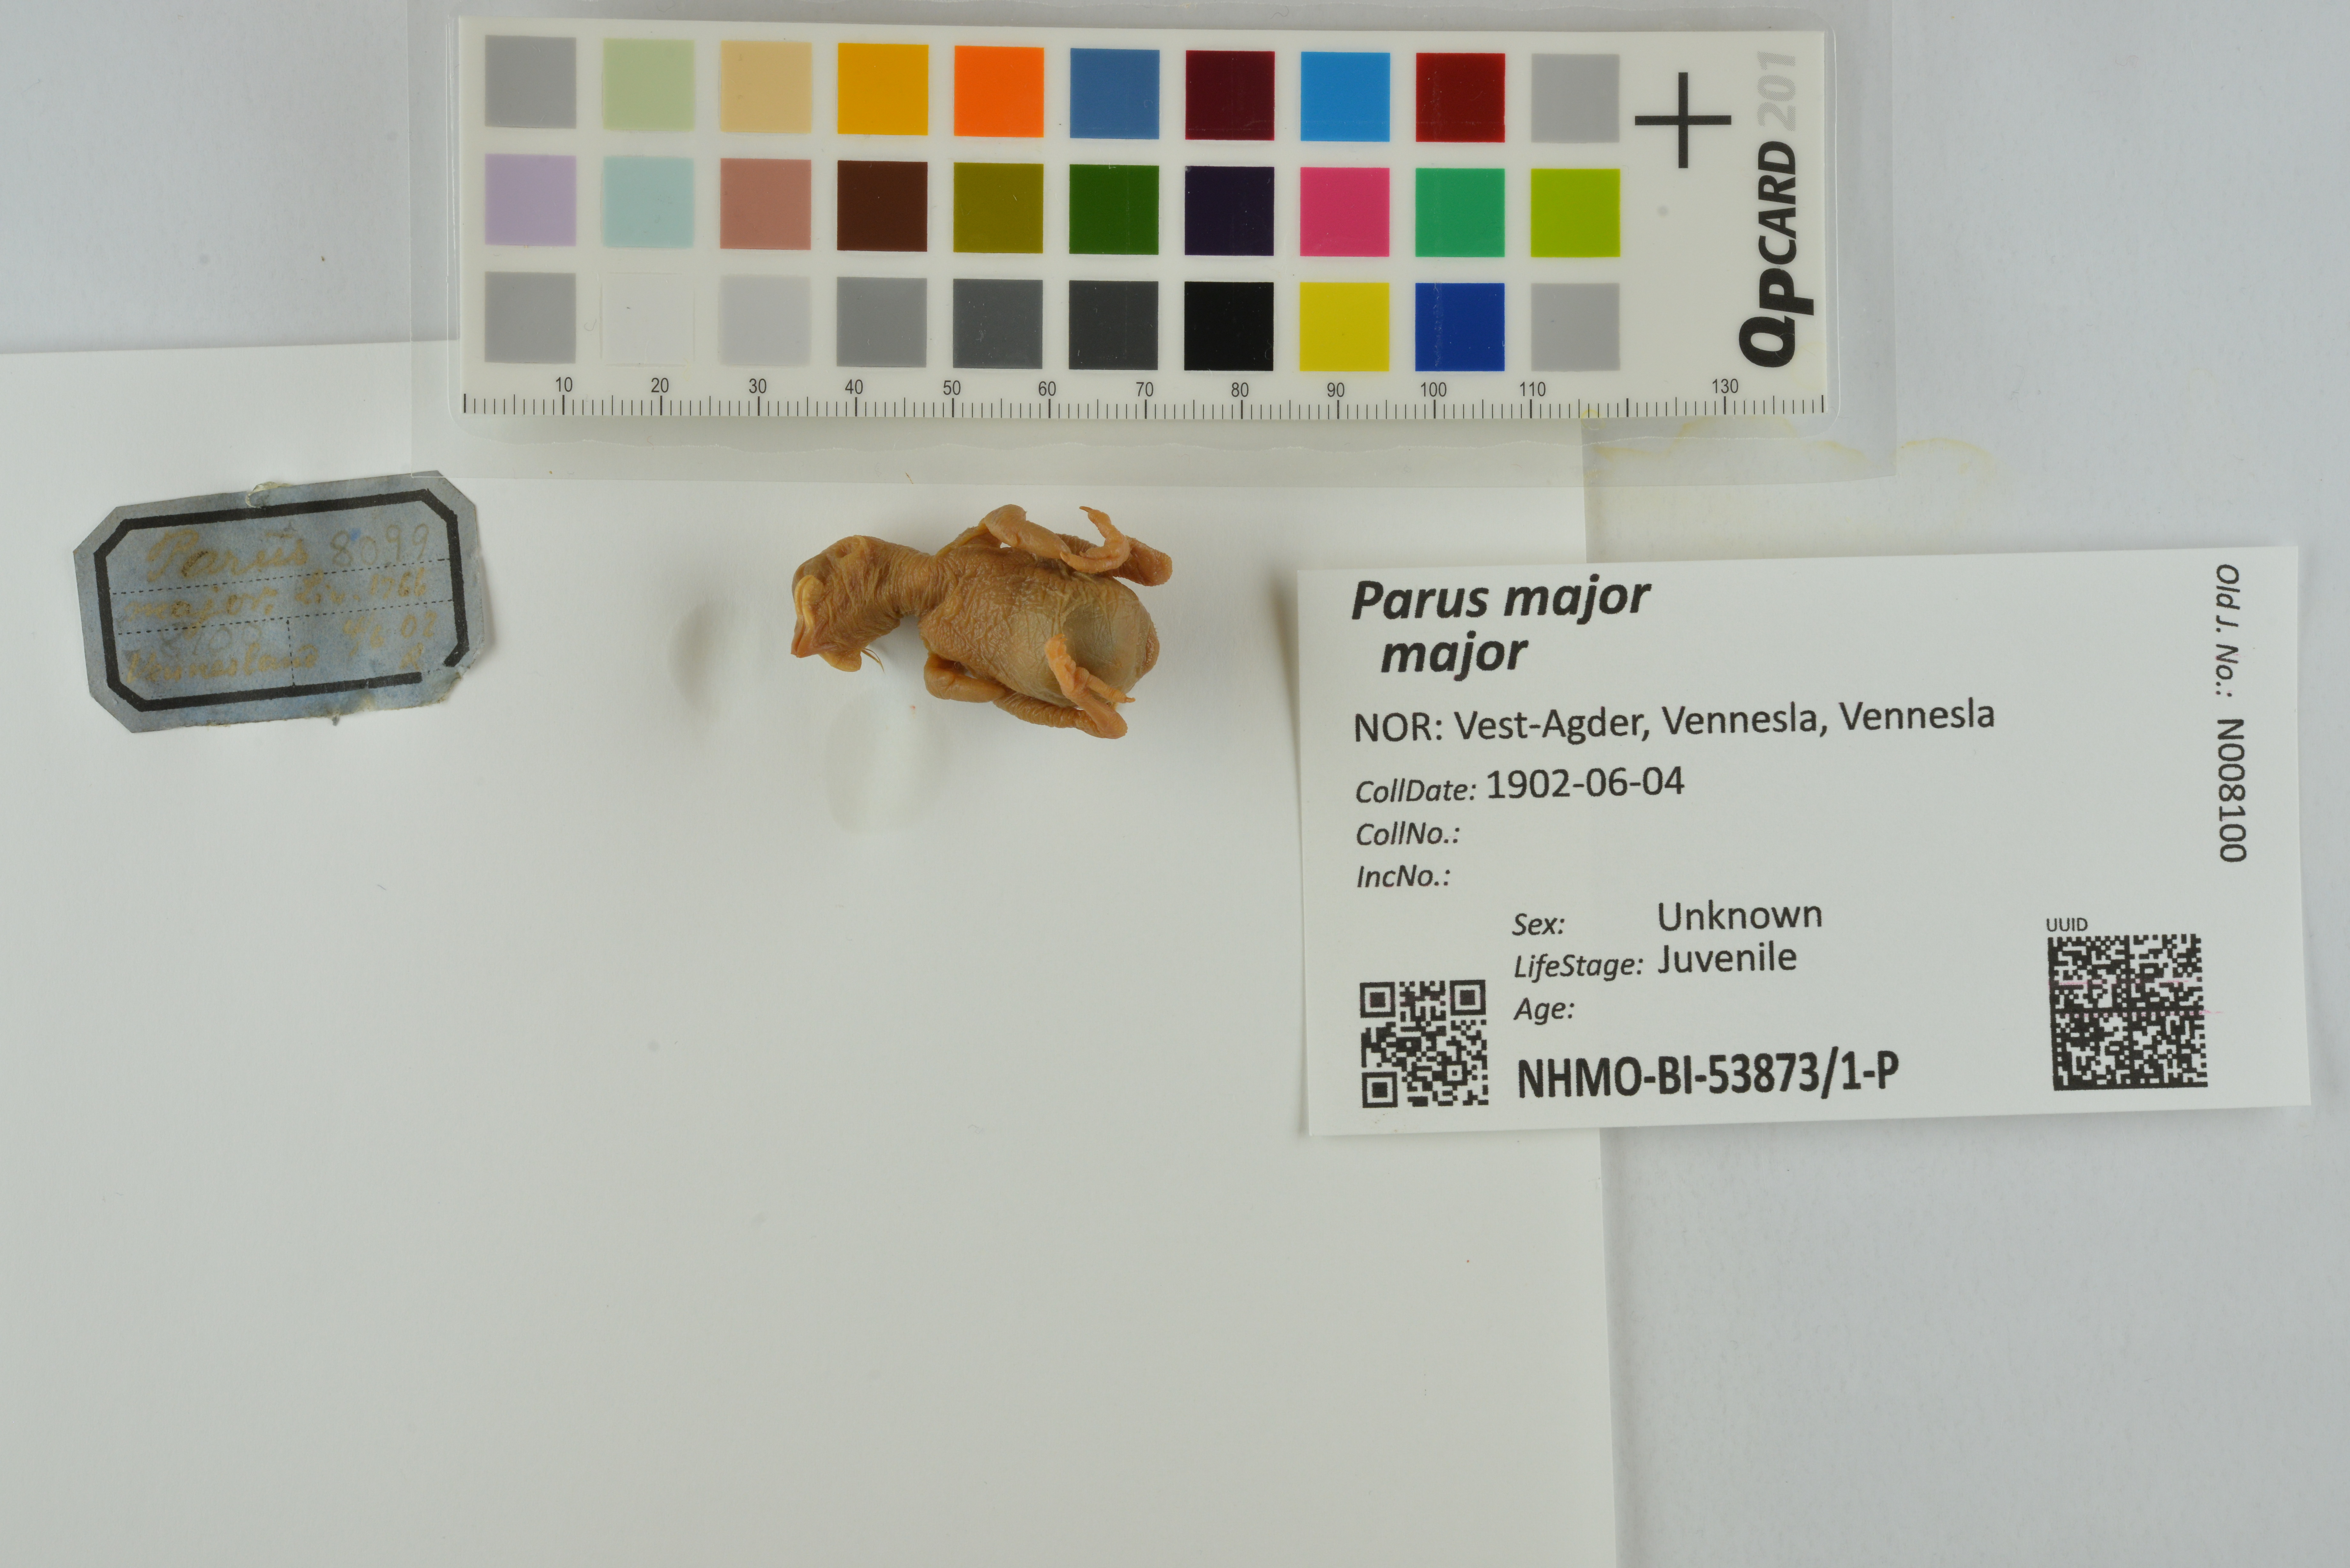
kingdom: Animalia
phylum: Chordata
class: Aves
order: Passeriformes
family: Paridae
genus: Parus
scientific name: Parus major
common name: Great tit
